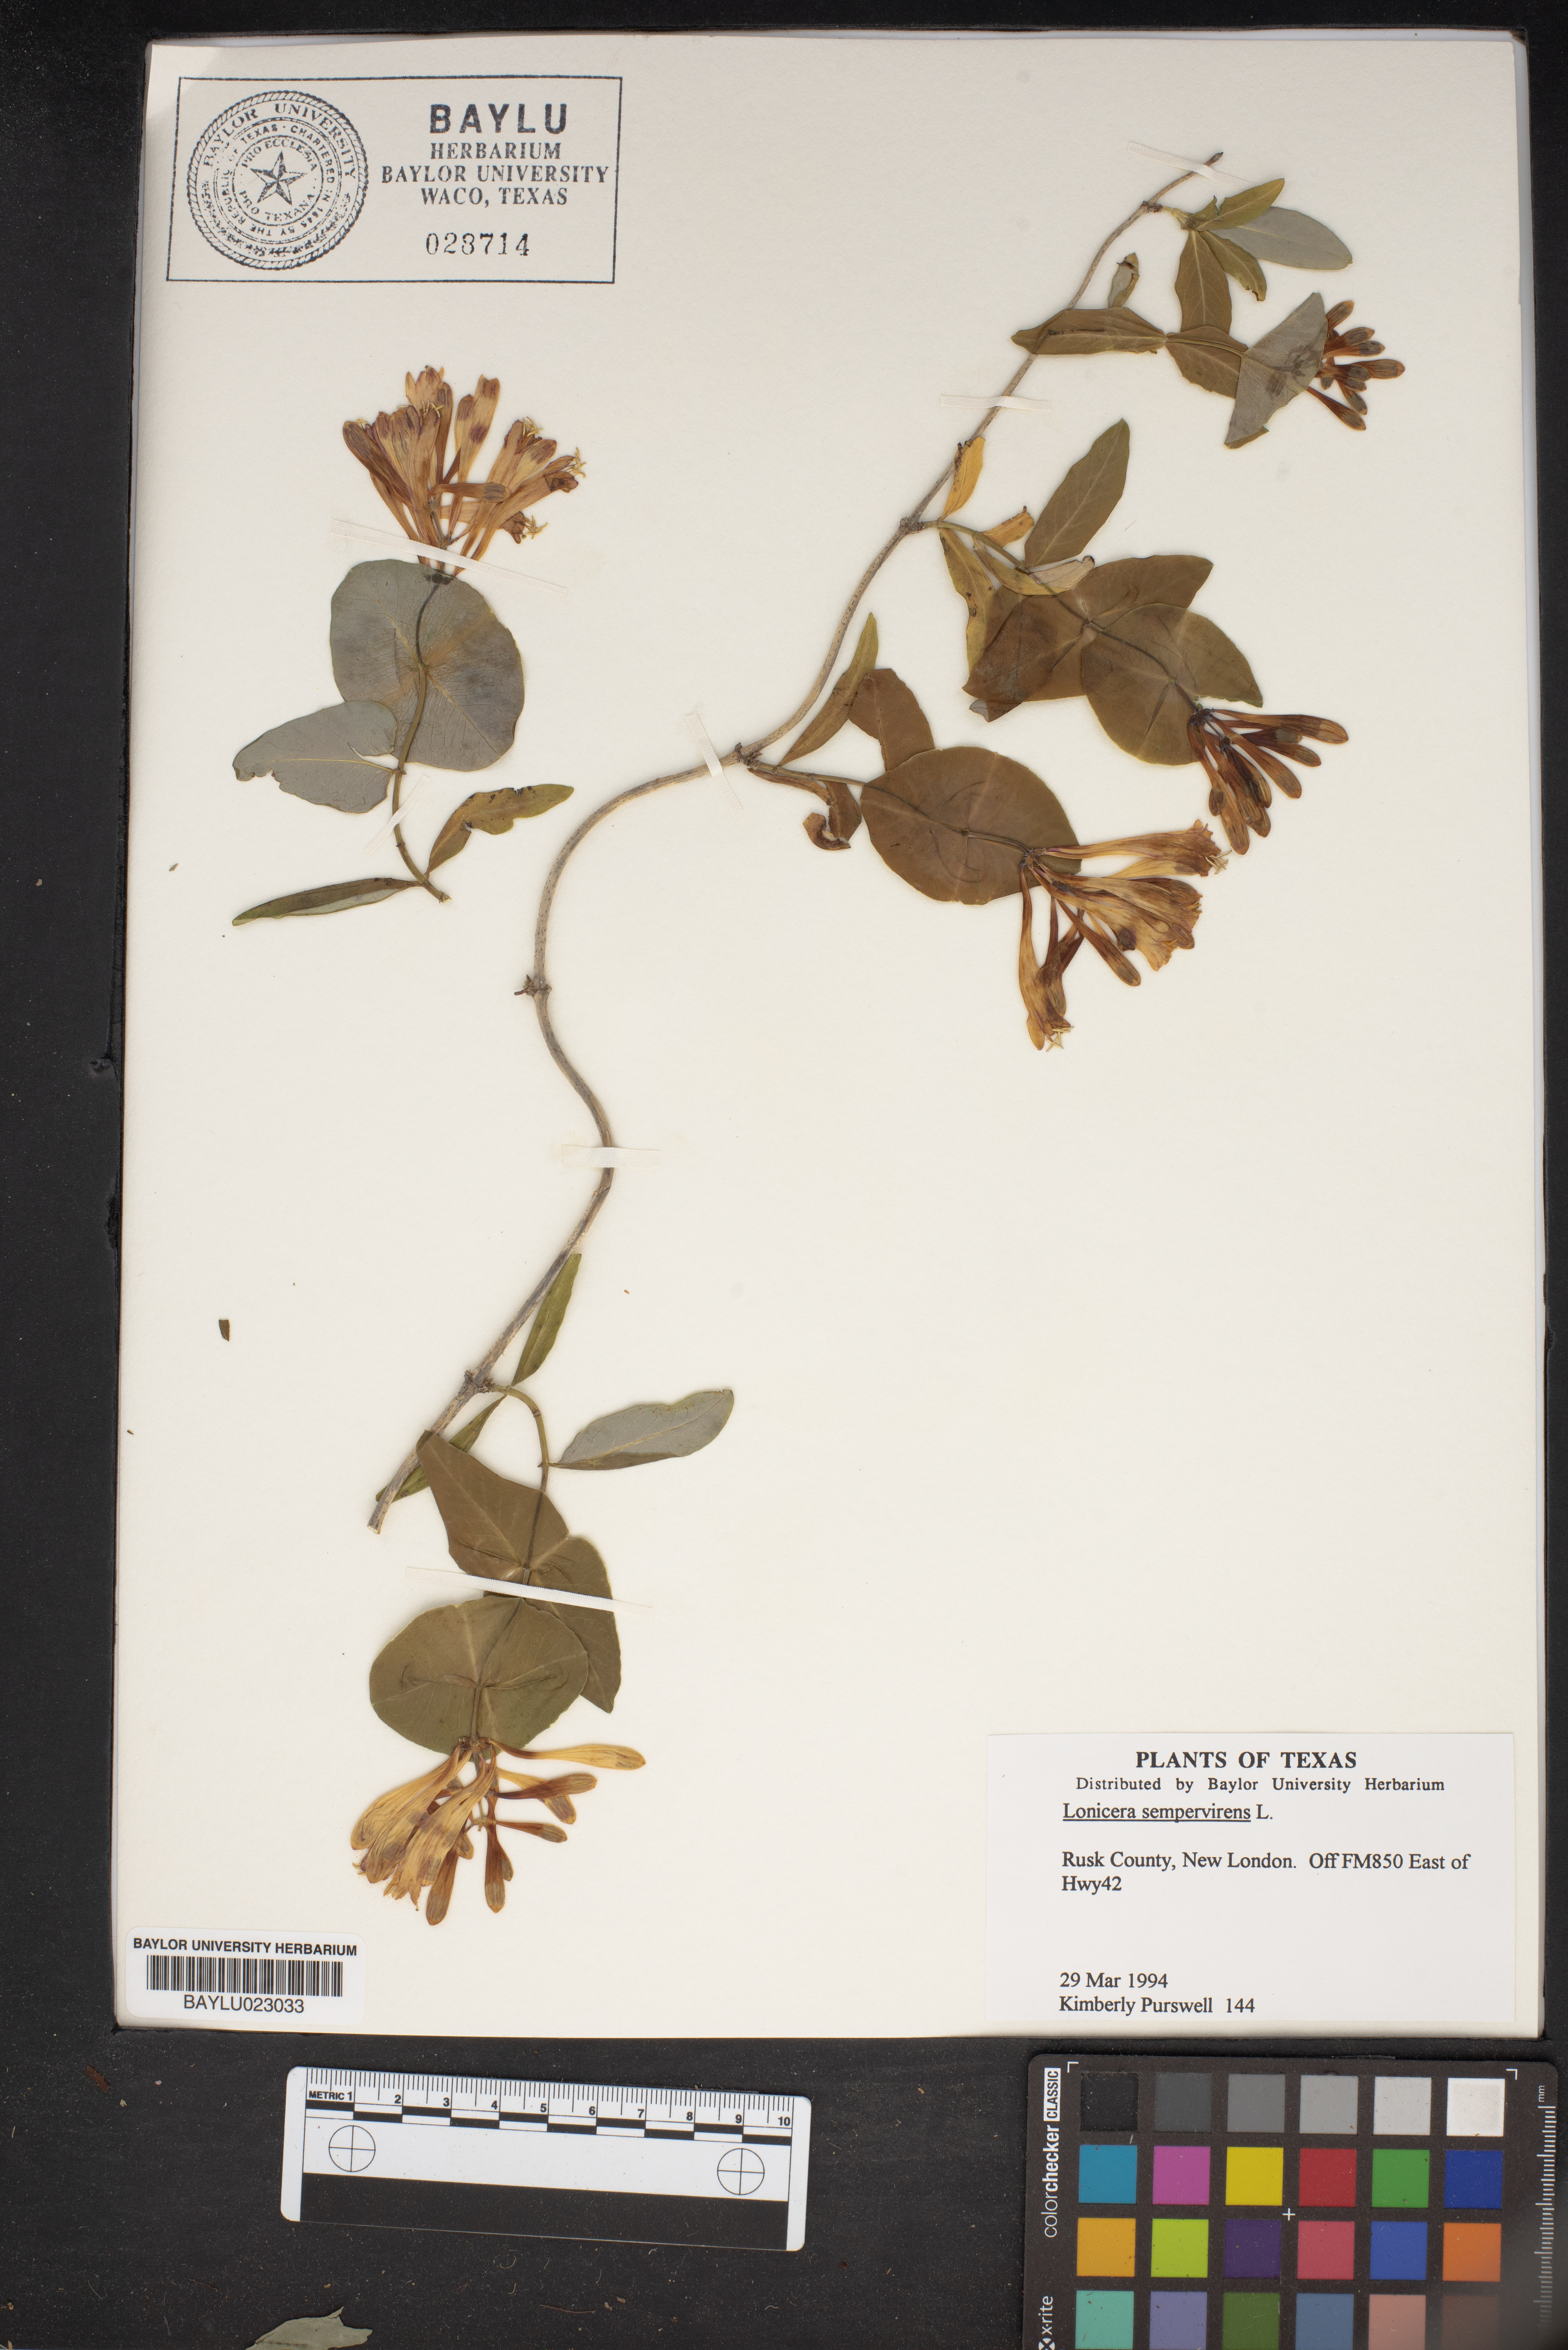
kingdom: Plantae
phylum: Tracheophyta
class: Magnoliopsida
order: Dipsacales
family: Caprifoliaceae
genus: Lonicera
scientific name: Lonicera sempervirens
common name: Coral honeysuckle
